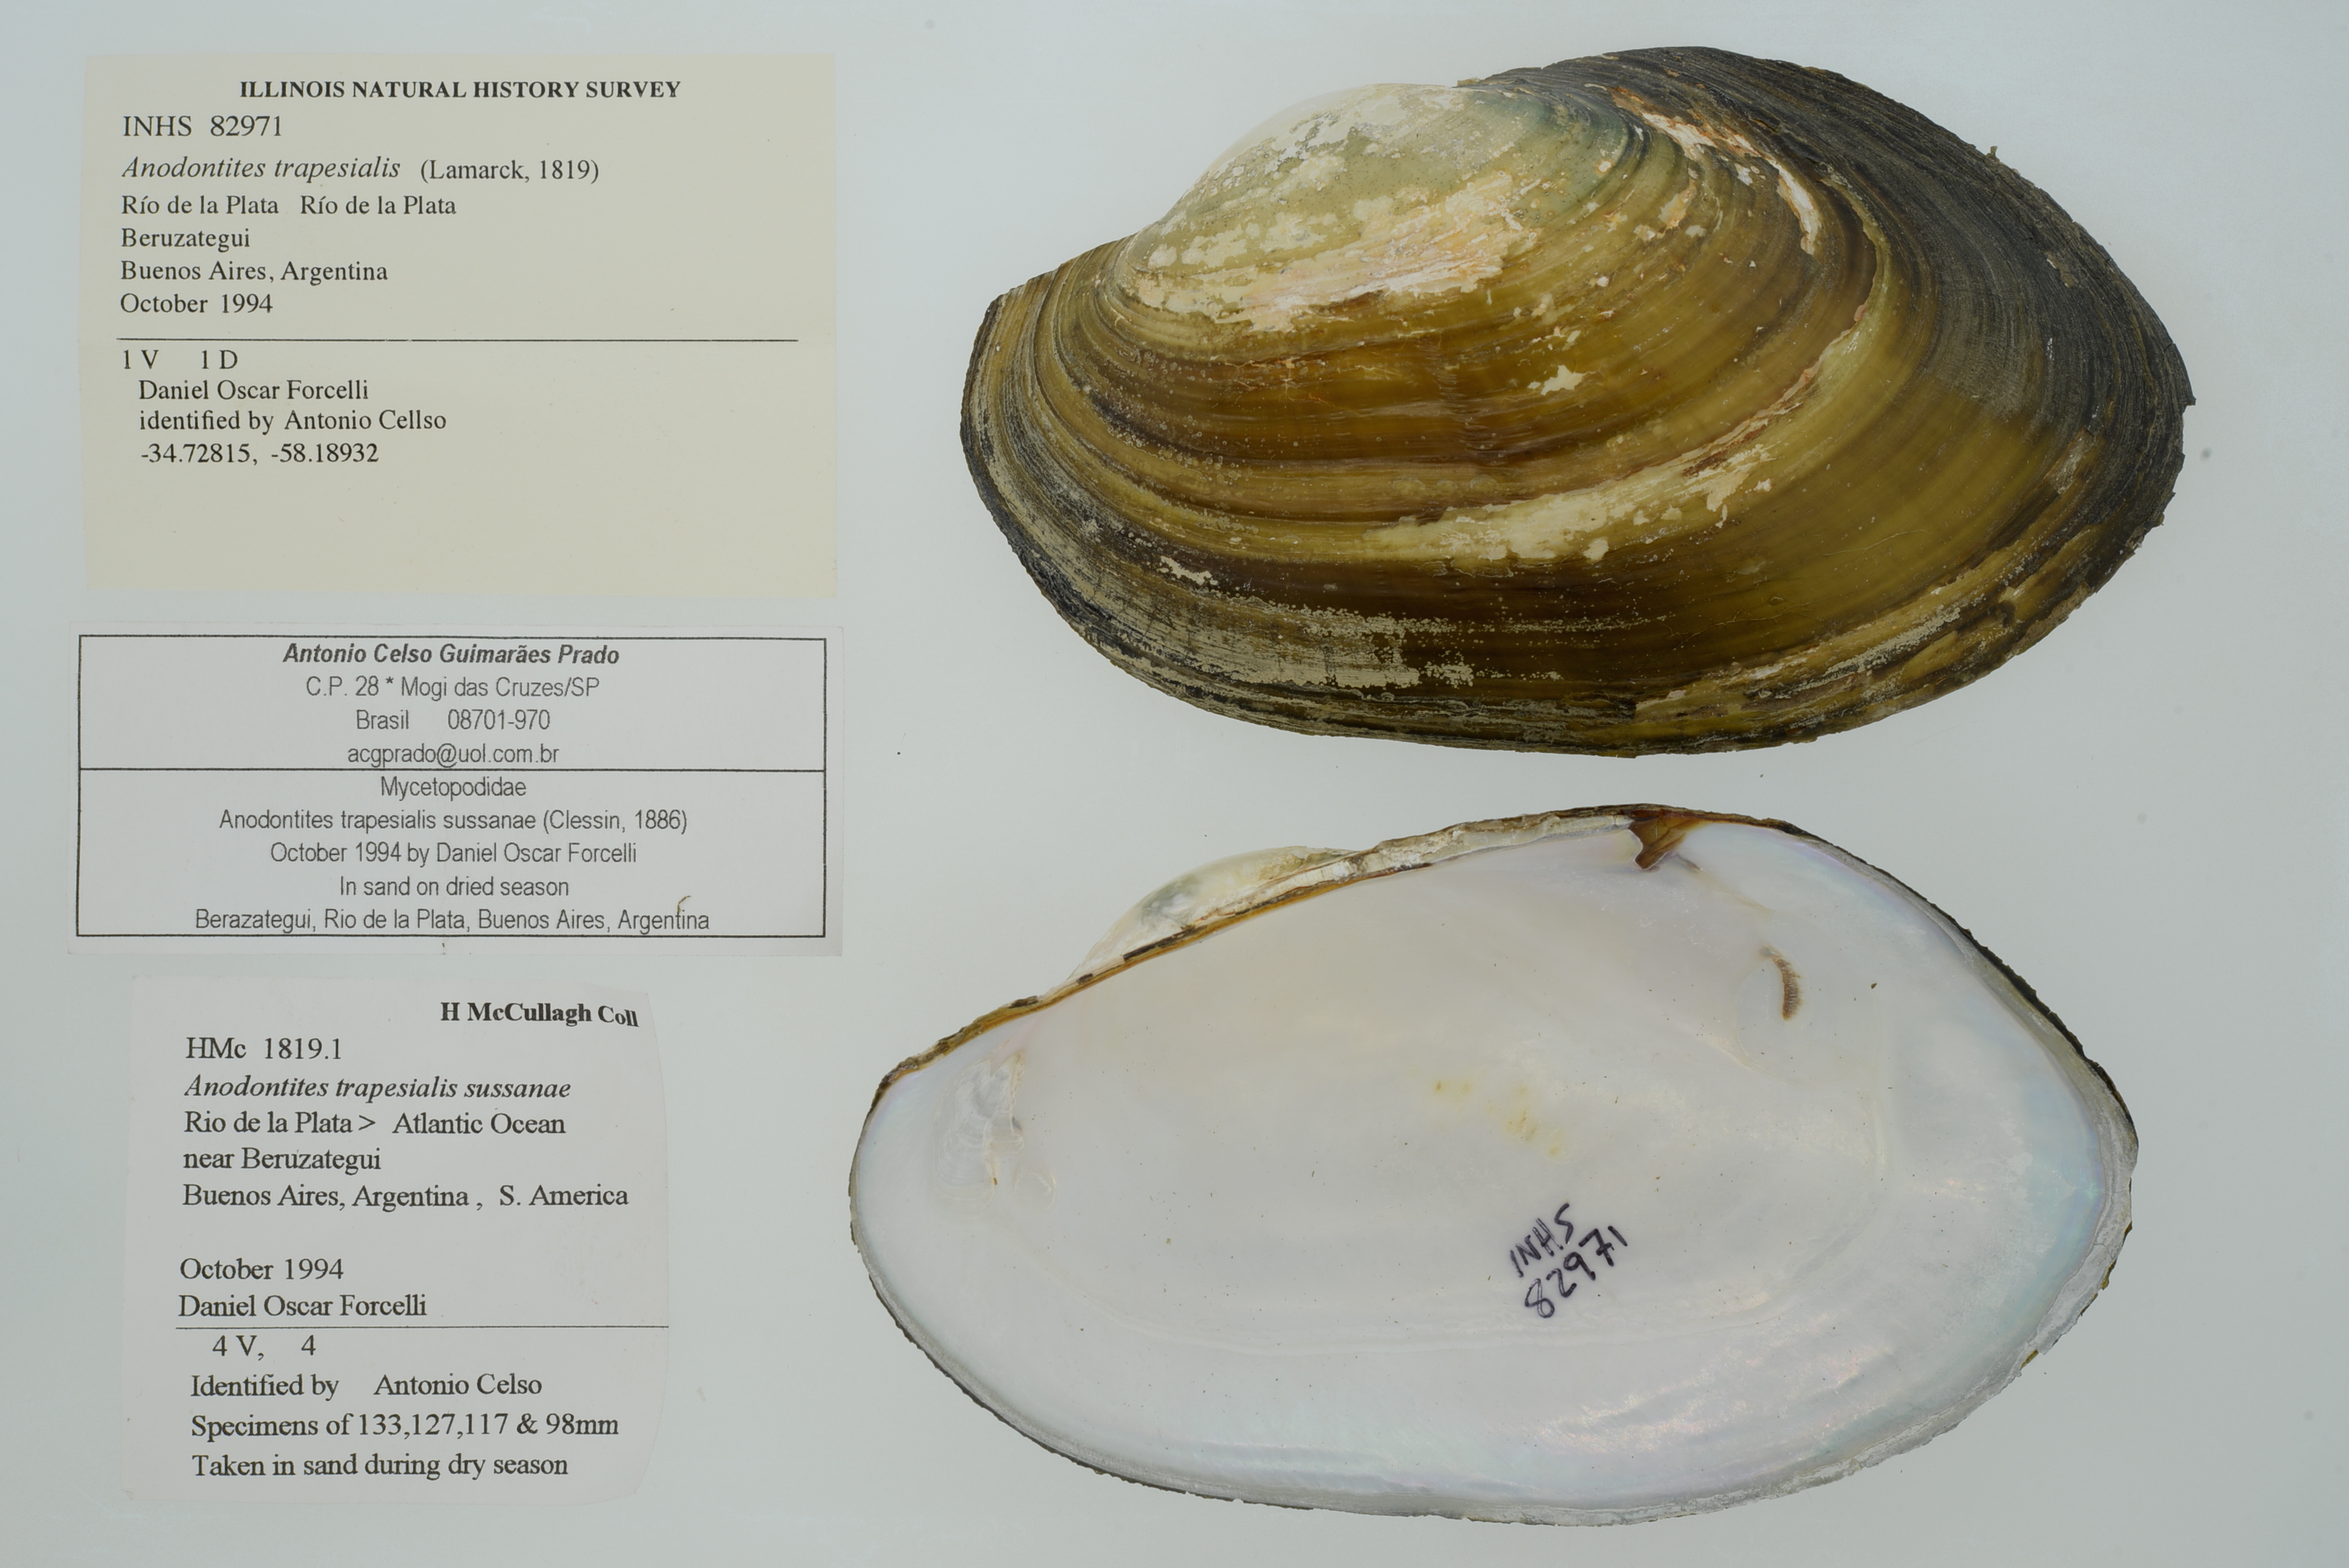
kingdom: Animalia
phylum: Mollusca
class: Bivalvia
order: Unionida
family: Mycetopodidae
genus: Anodontites
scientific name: Anodontites trapesialis
